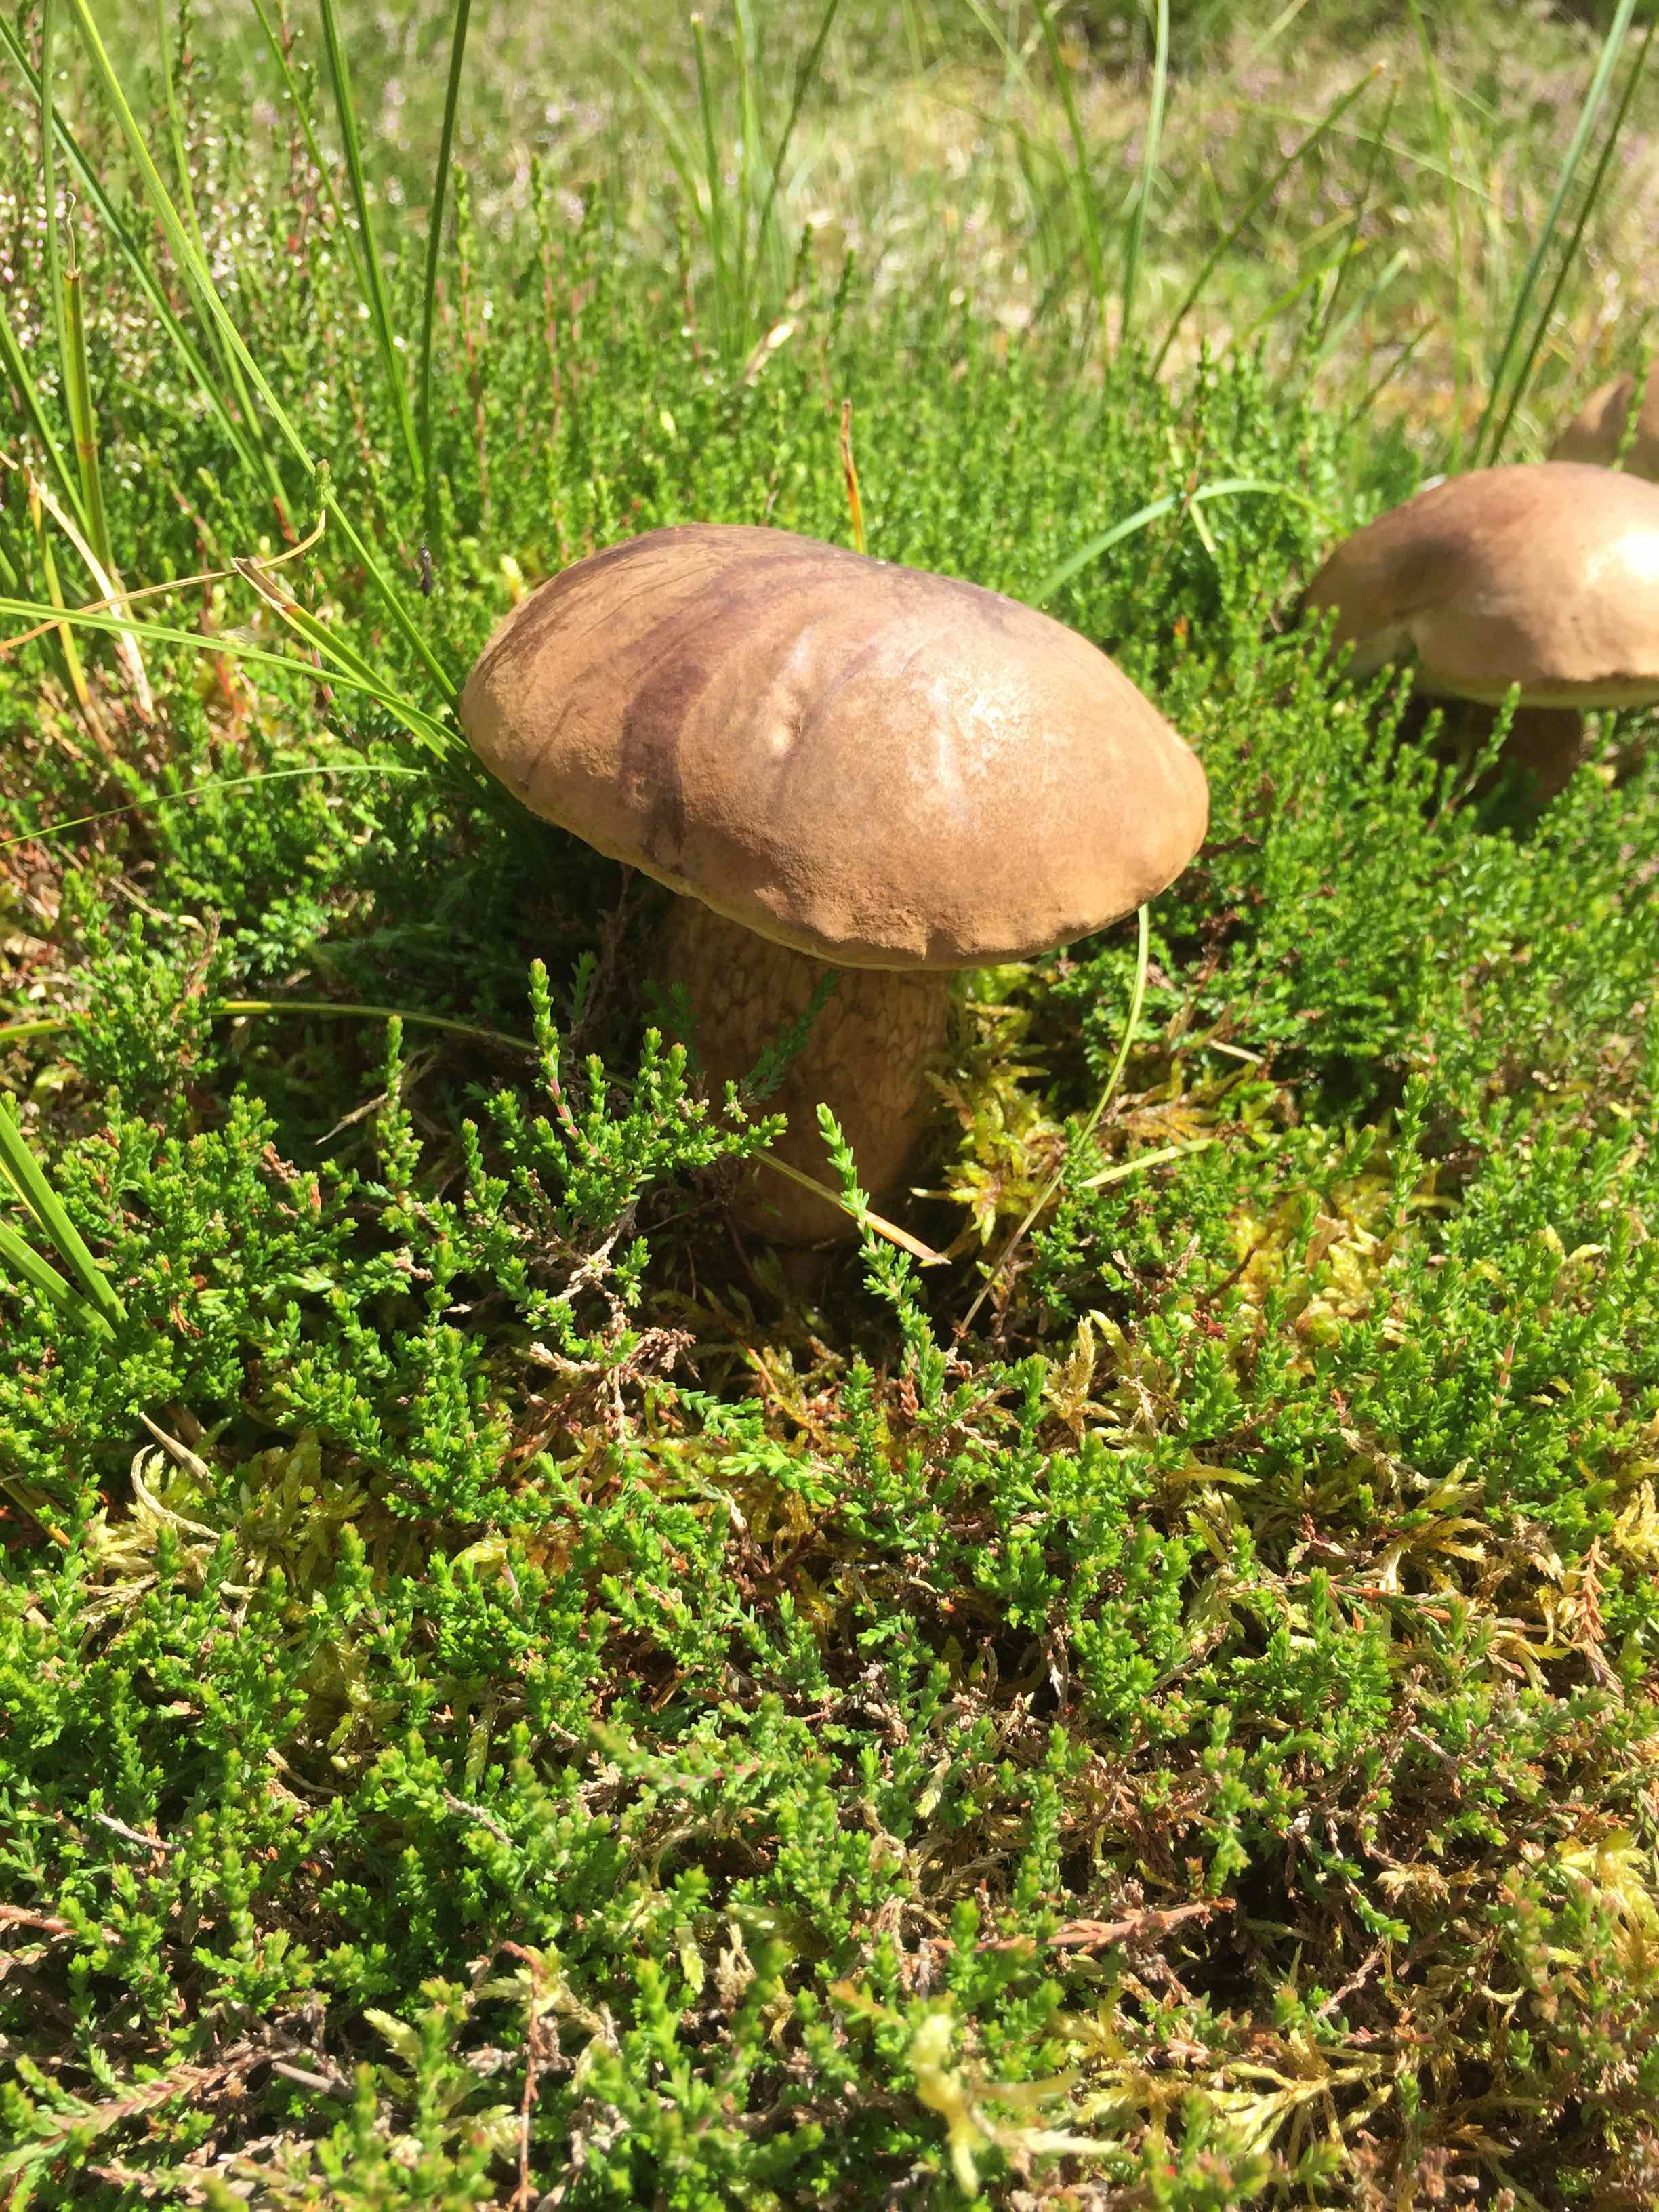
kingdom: Fungi
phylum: Basidiomycota
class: Agaricomycetes
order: Boletales
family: Boletaceae
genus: Tylopilus
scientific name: Tylopilus felleus
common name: galderørhat
